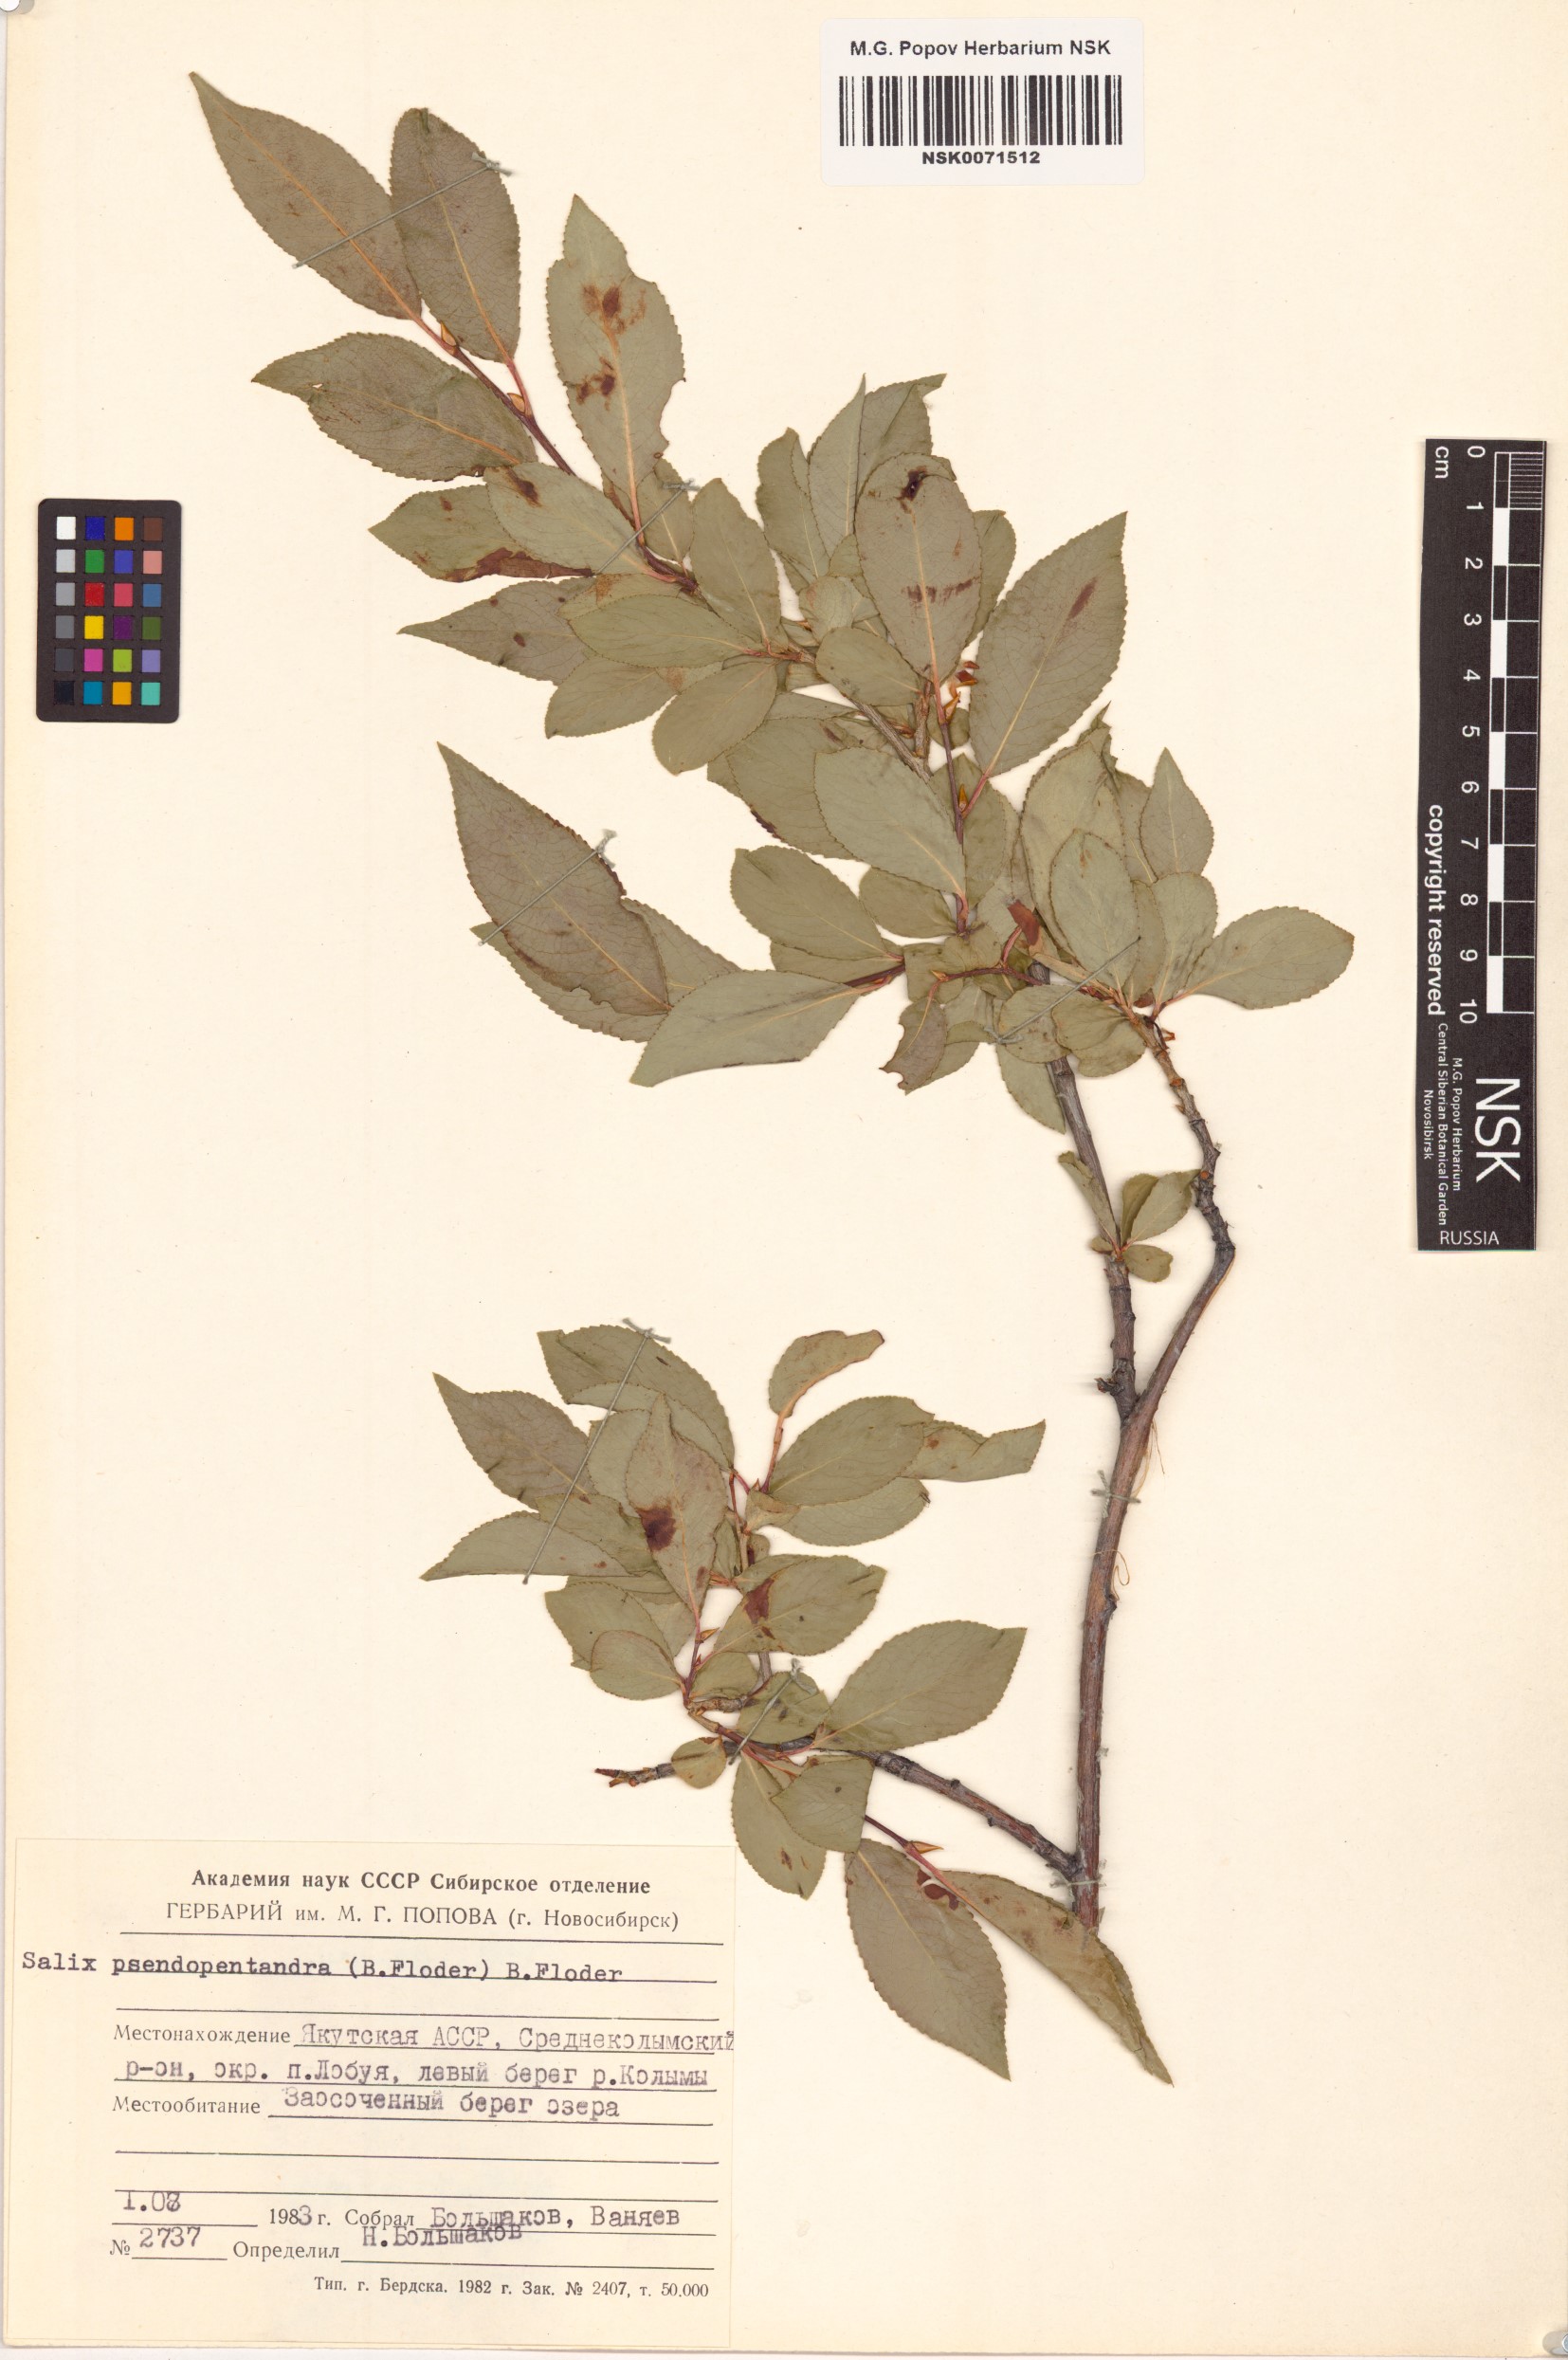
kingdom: Plantae
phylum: Tracheophyta
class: Magnoliopsida
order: Malpighiales
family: Salicaceae
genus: Salix
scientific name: Salix pseudopentandra
